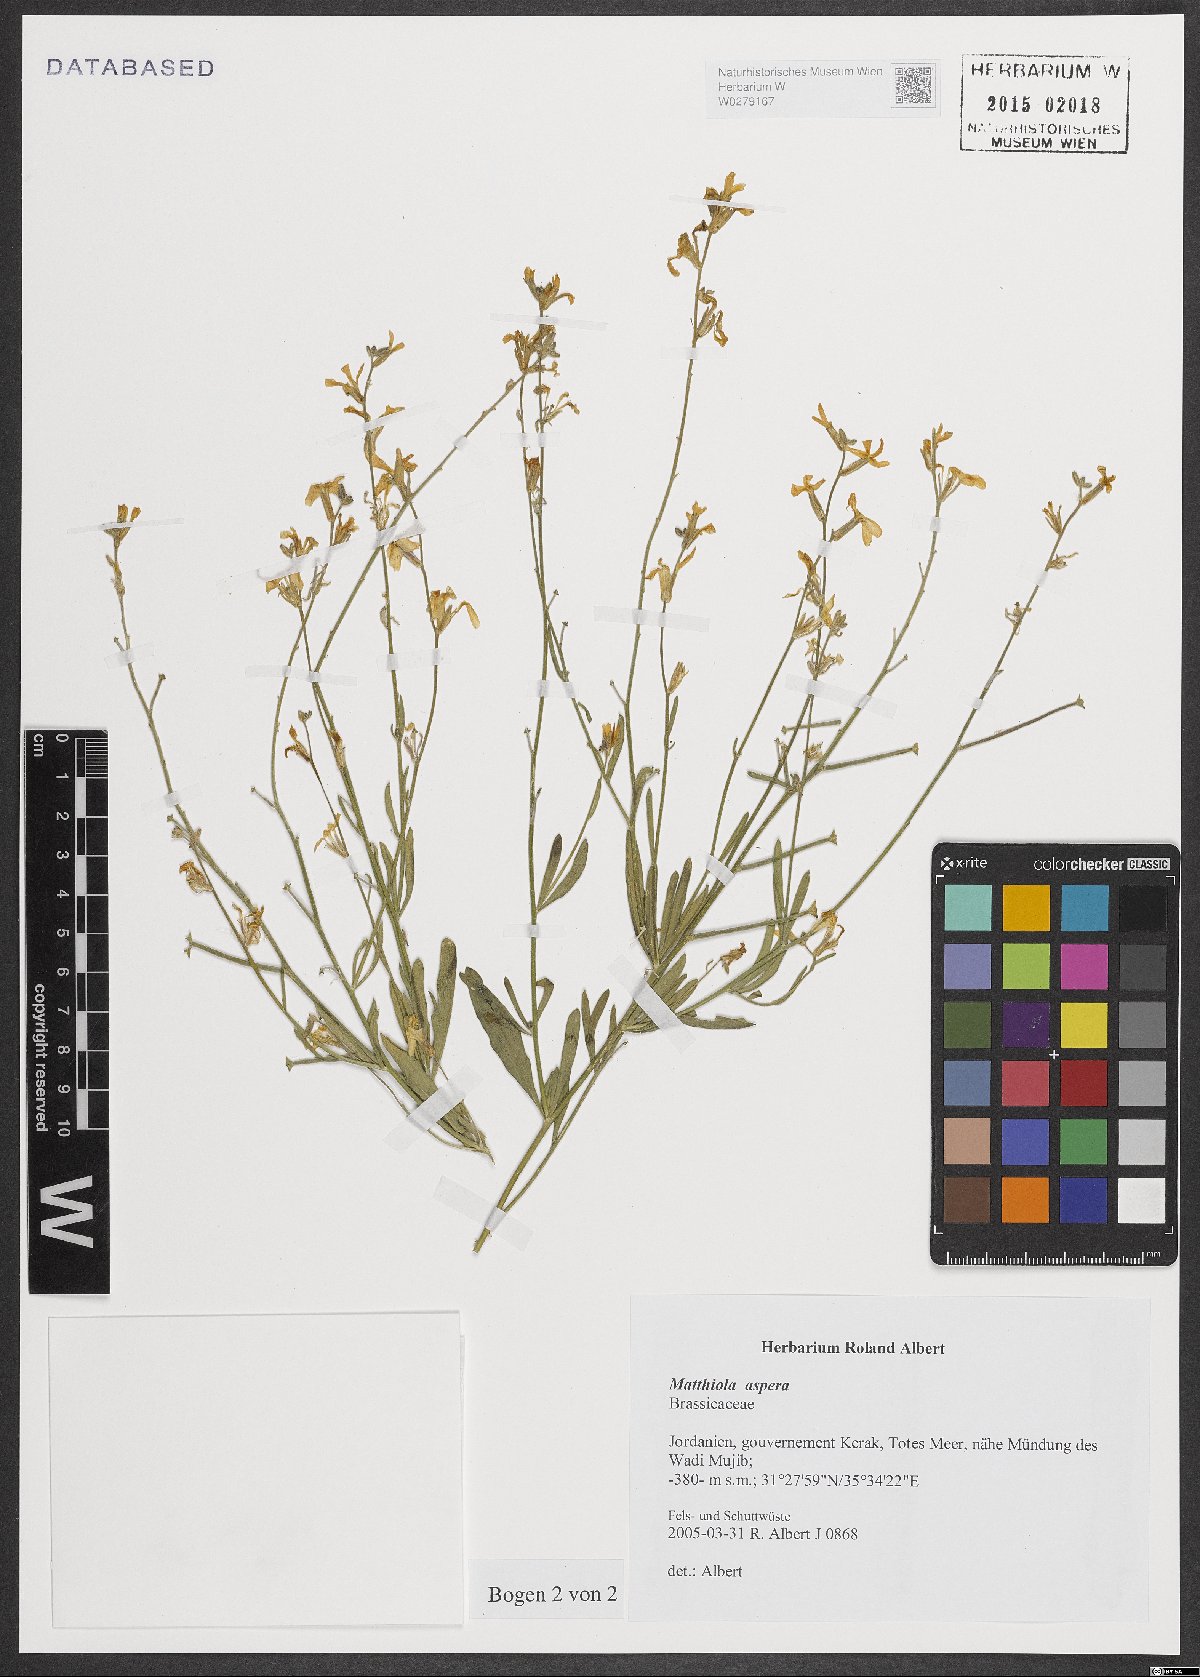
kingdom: Plantae
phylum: Tracheophyta
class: Magnoliopsida
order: Brassicales
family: Brassicaceae
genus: Matthiola
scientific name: Matthiola longipetala
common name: Night-scented stock
